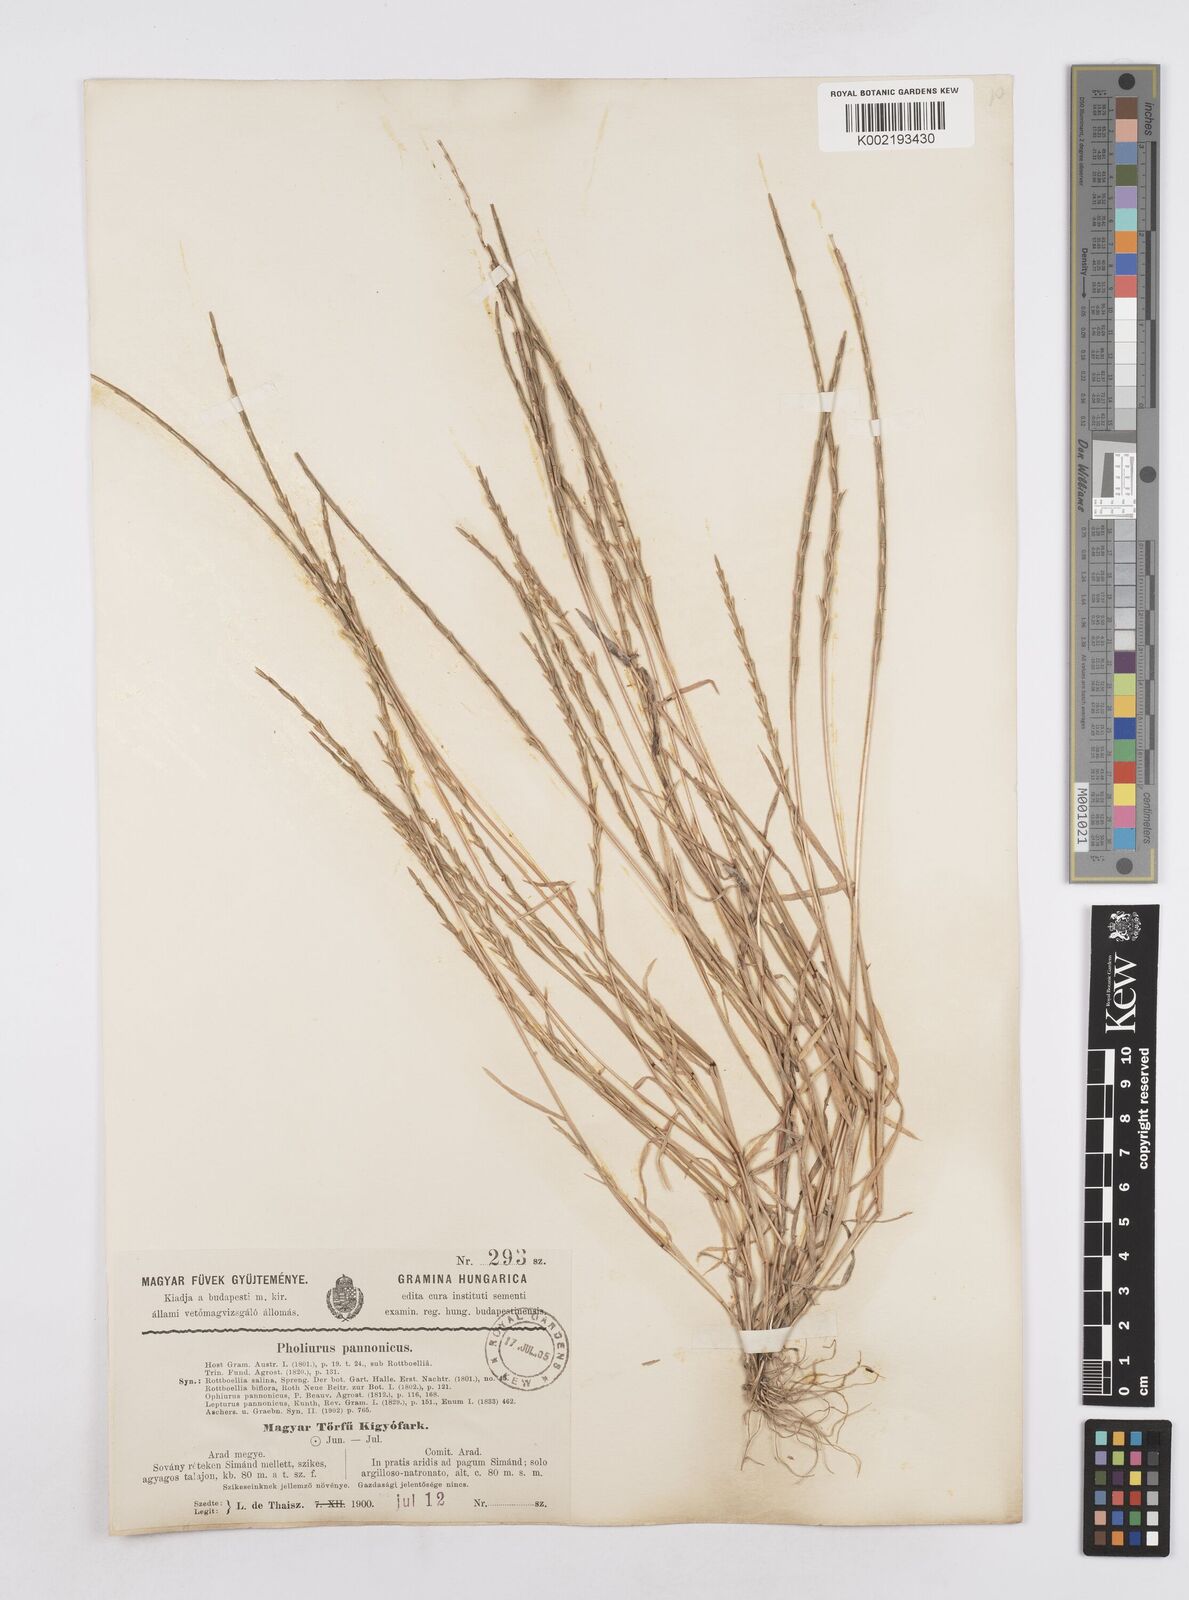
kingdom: Plantae
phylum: Tracheophyta
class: Liliopsida
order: Poales
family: Poaceae
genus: Pholiurus
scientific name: Pholiurus pannonicus
